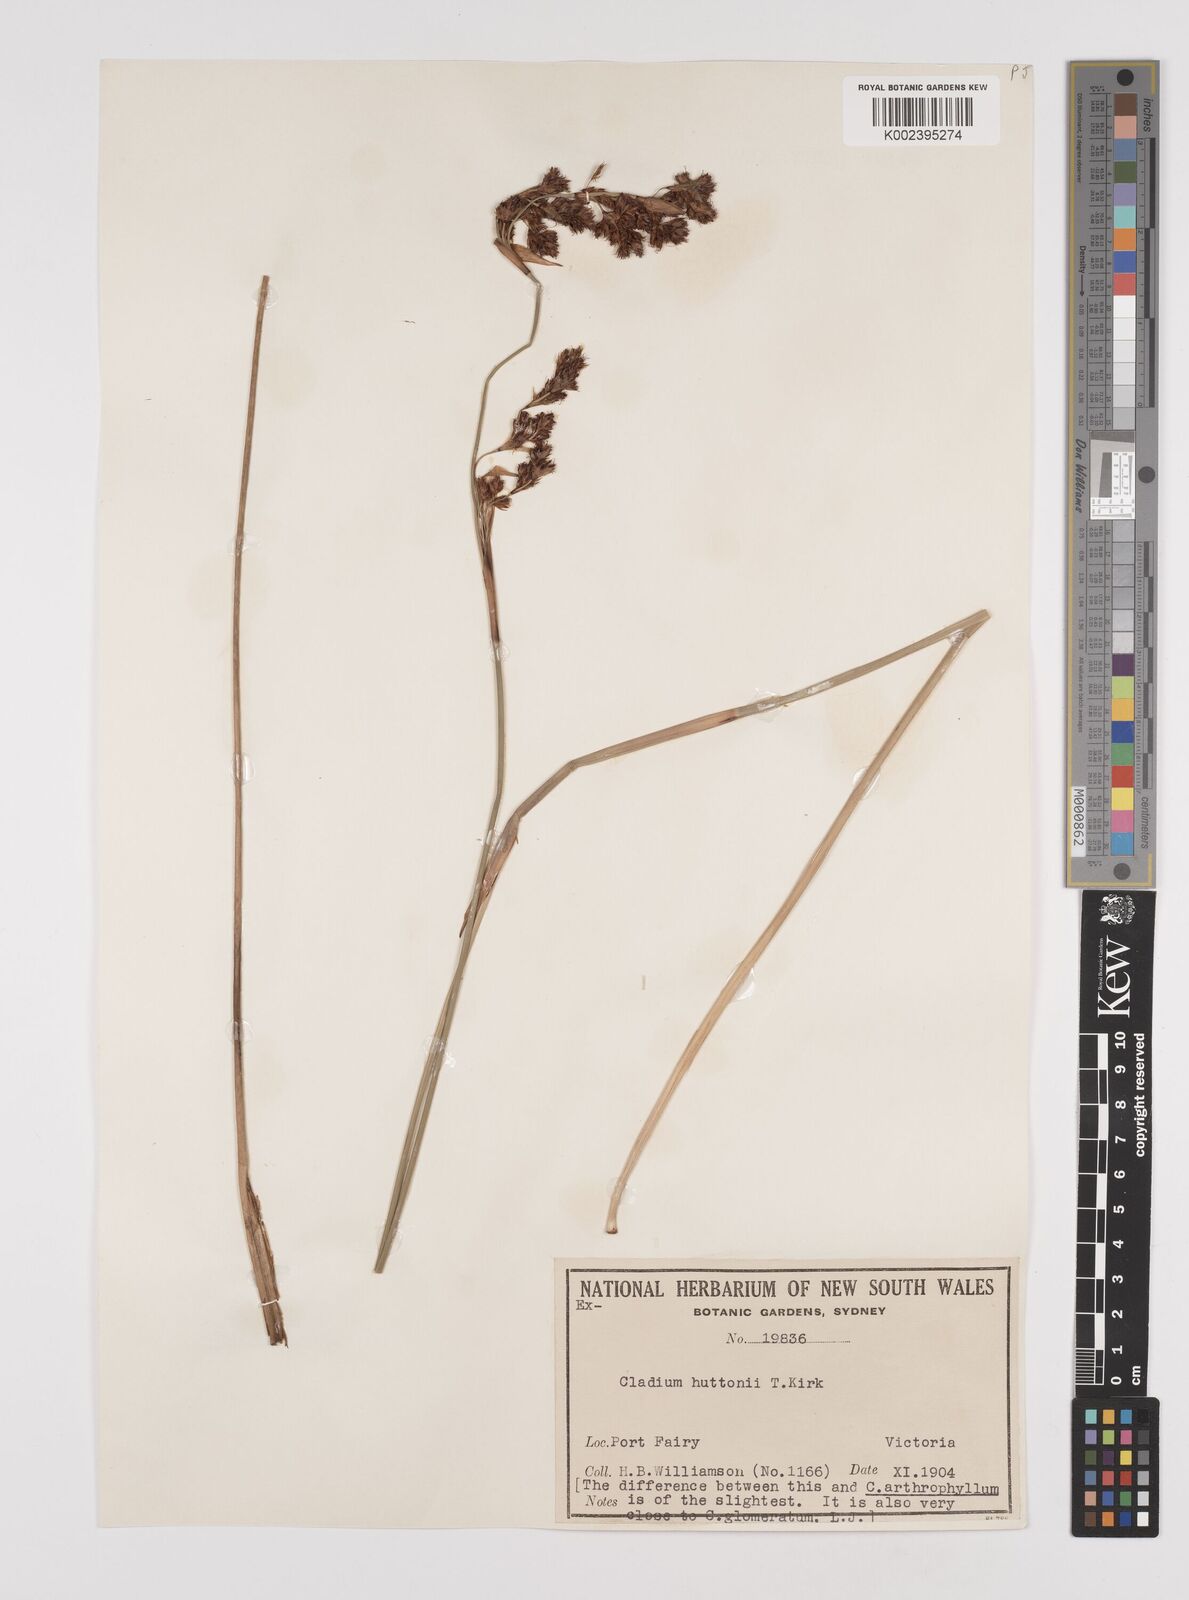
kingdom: Plantae
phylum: Tracheophyta
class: Liliopsida
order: Poales
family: Cyperaceae
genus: Machaerina
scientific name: Machaerina huttonii
